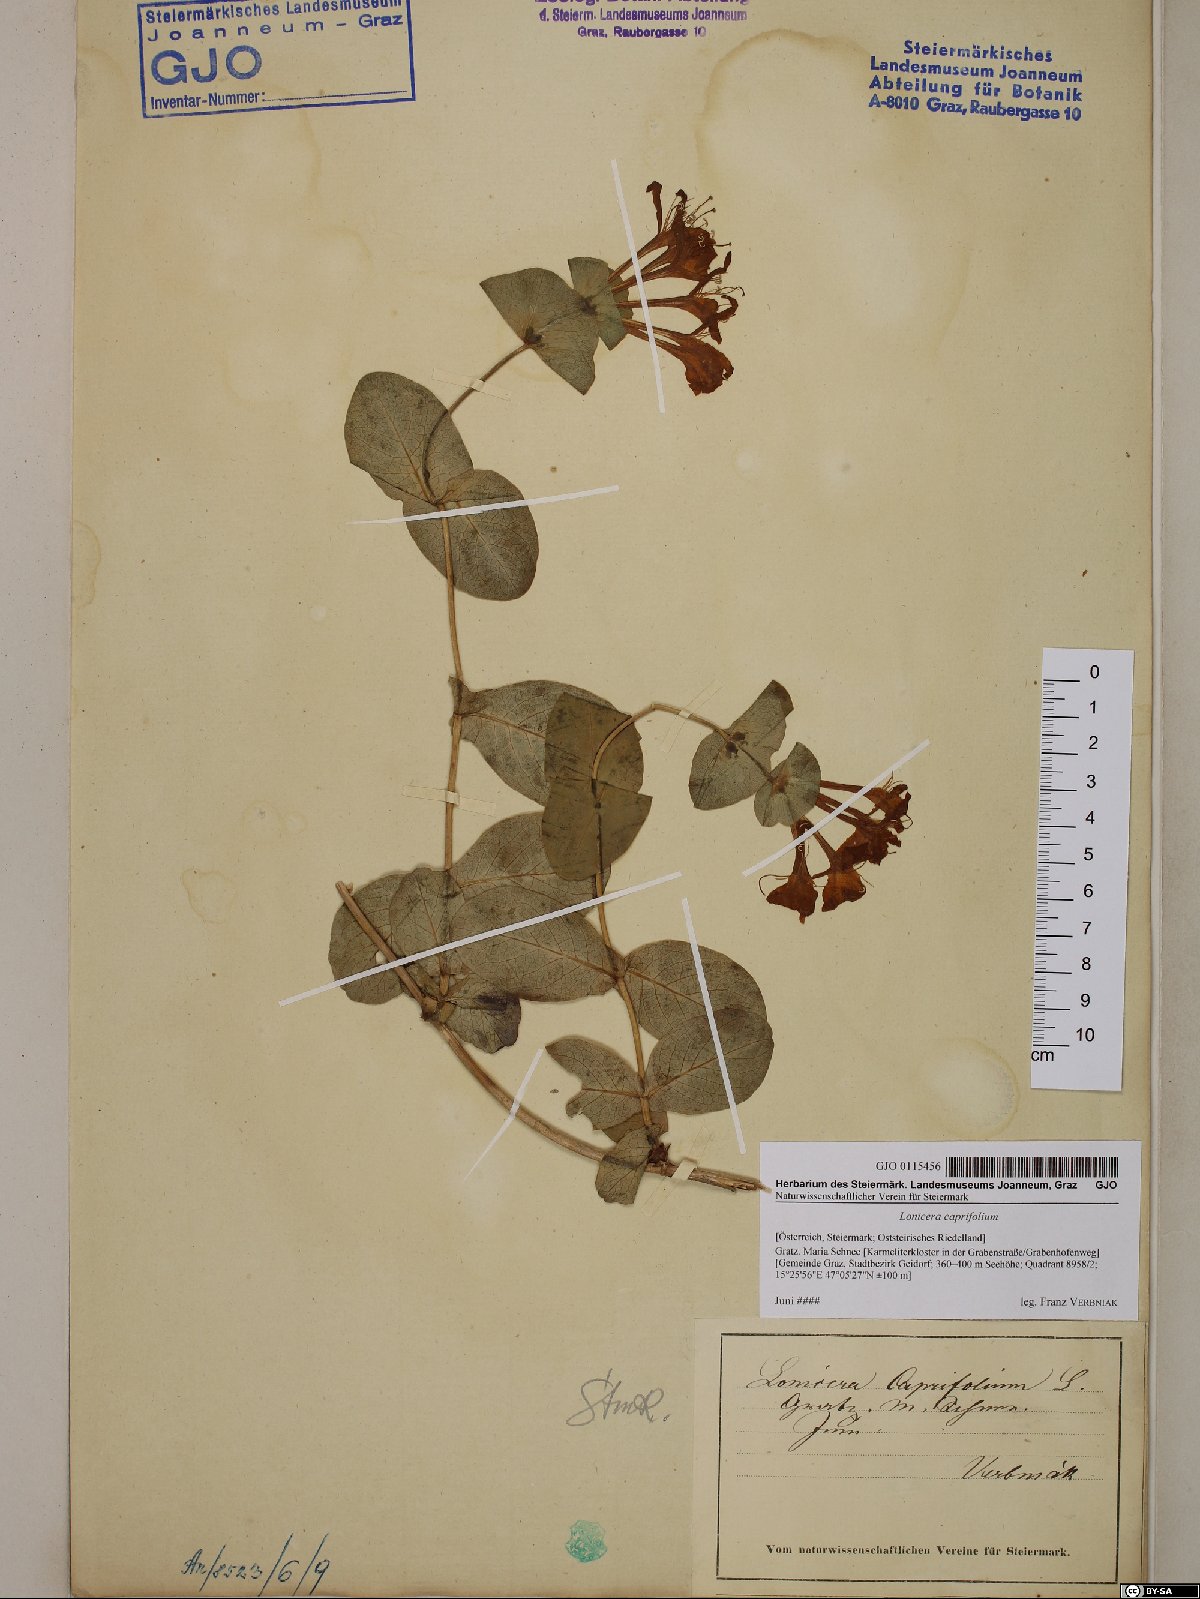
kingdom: Plantae
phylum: Tracheophyta
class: Magnoliopsida
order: Dipsacales
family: Caprifoliaceae
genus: Lonicera
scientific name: Lonicera caprifolium
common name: Perfoliate honeysuckle
